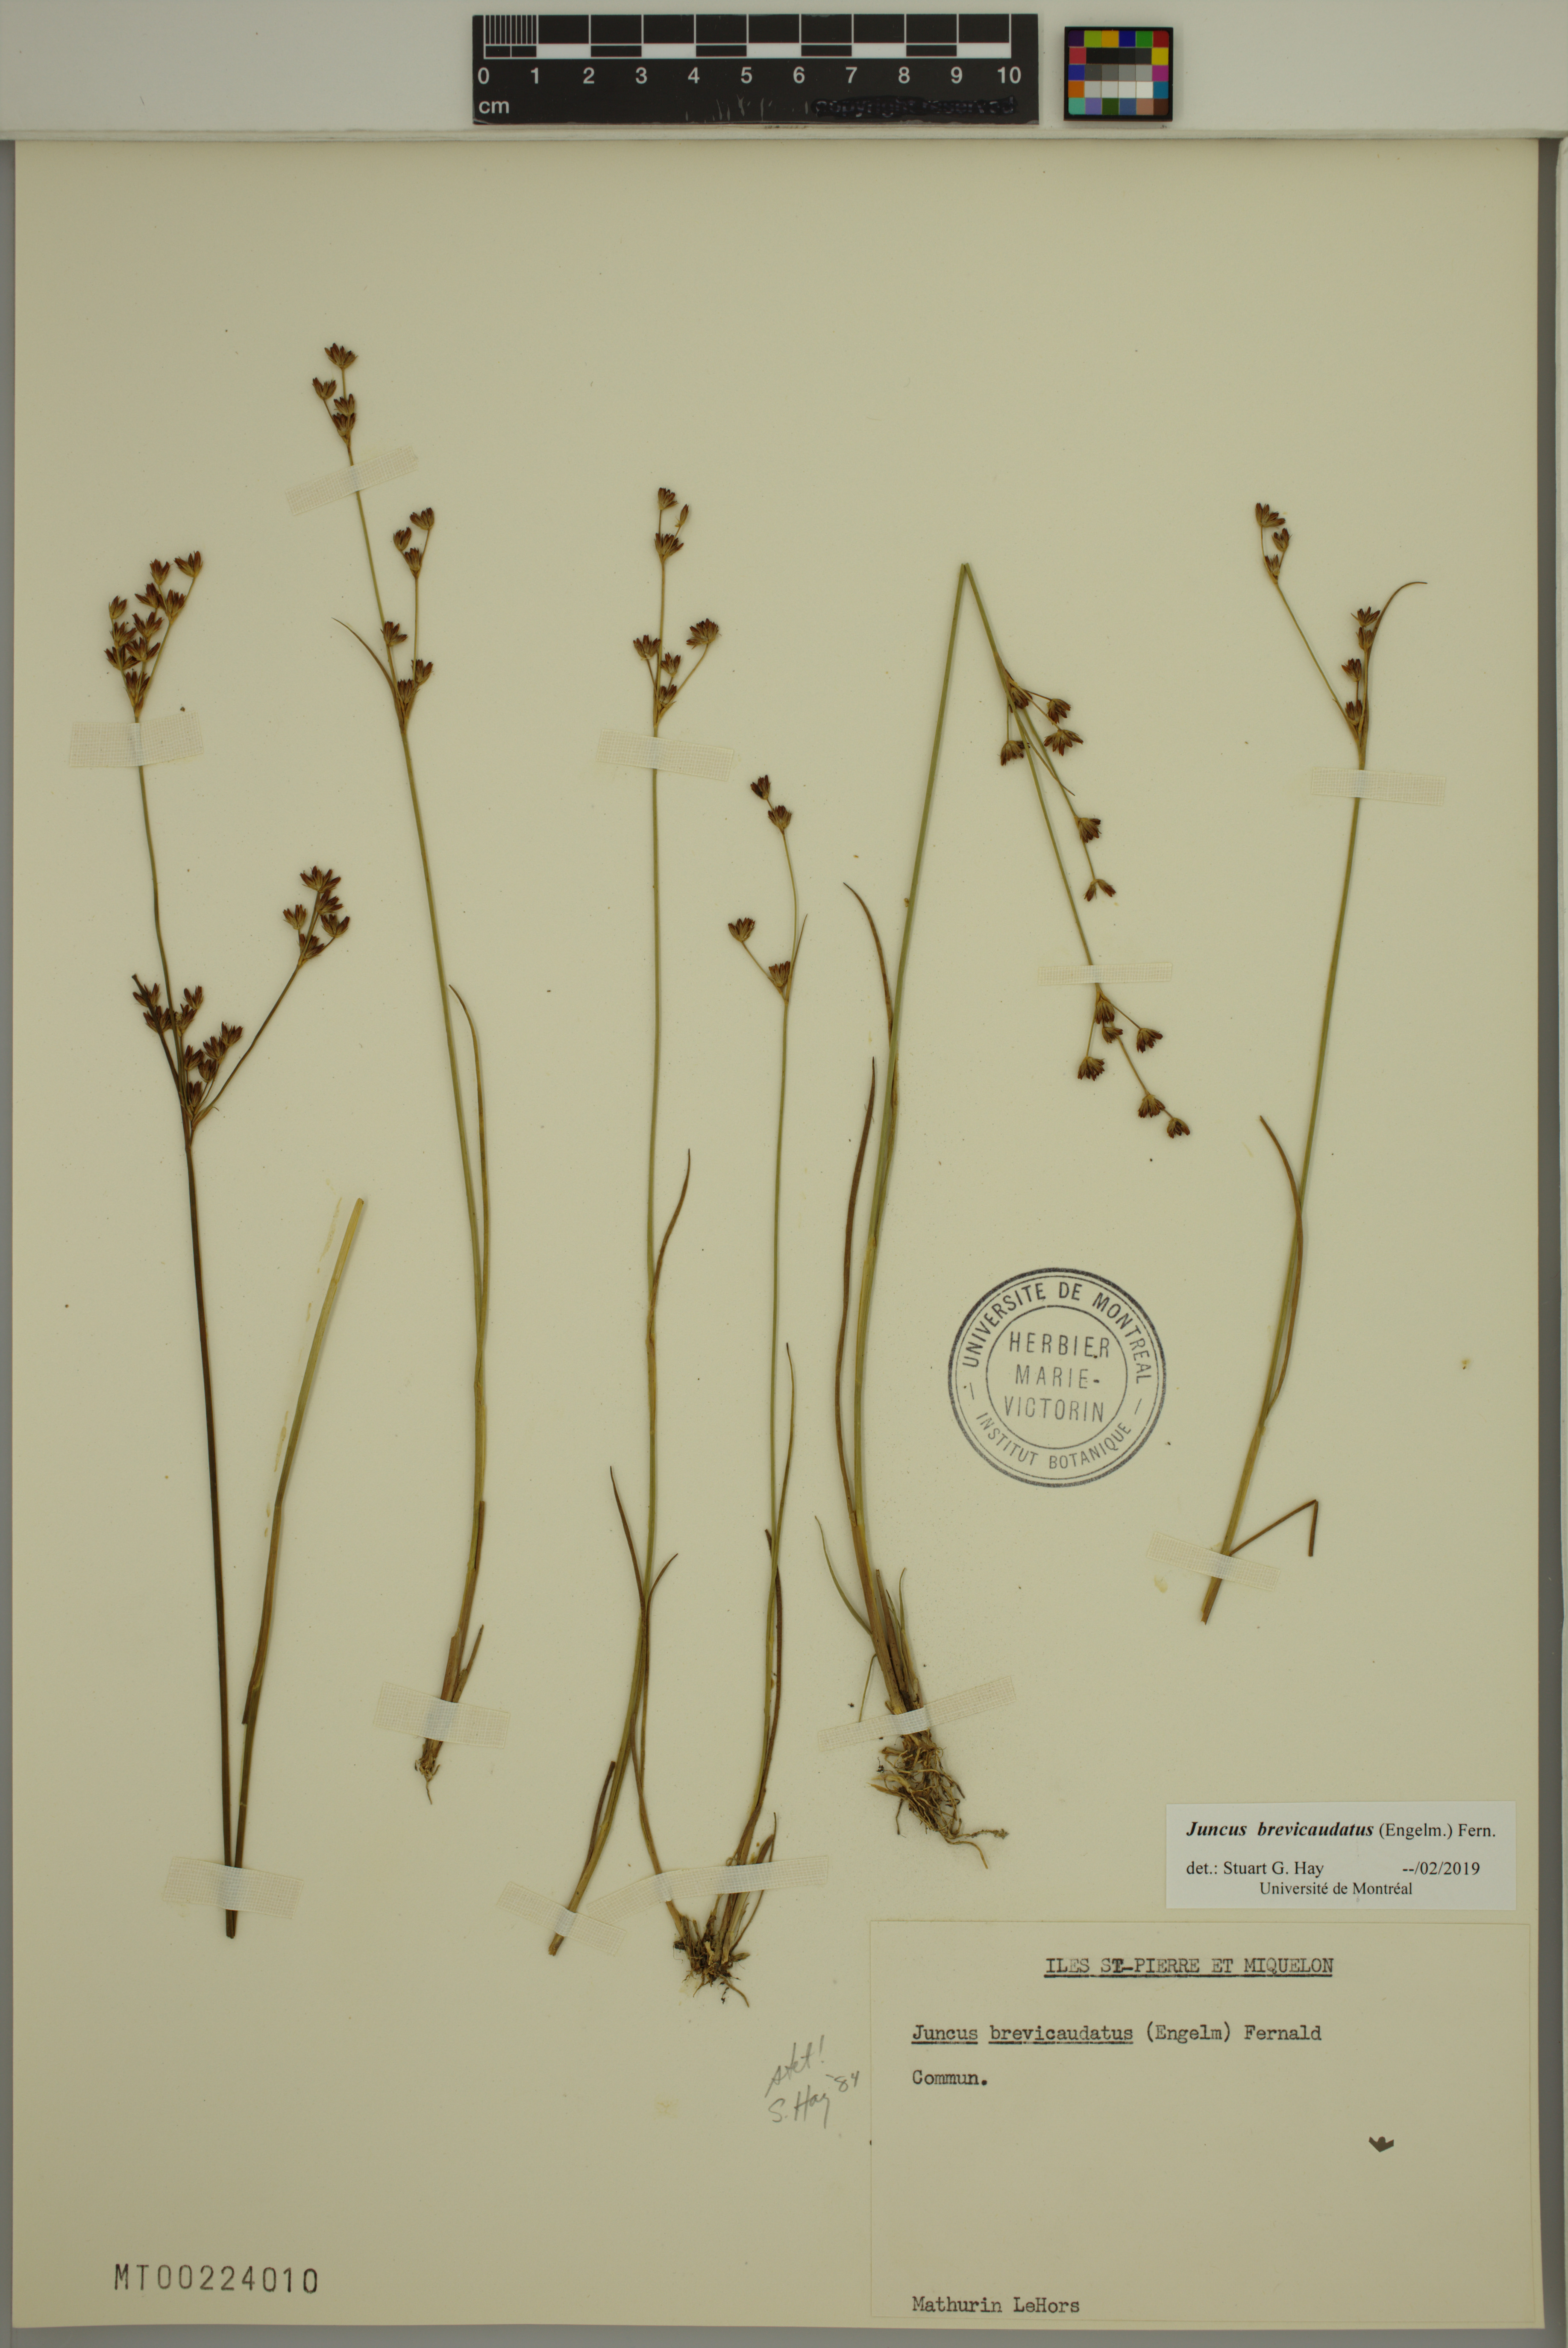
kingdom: Plantae
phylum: Tracheophyta
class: Liliopsida
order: Poales
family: Juncaceae
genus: Juncus
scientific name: Juncus brevicaudatus
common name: Narrow-panicle rush
